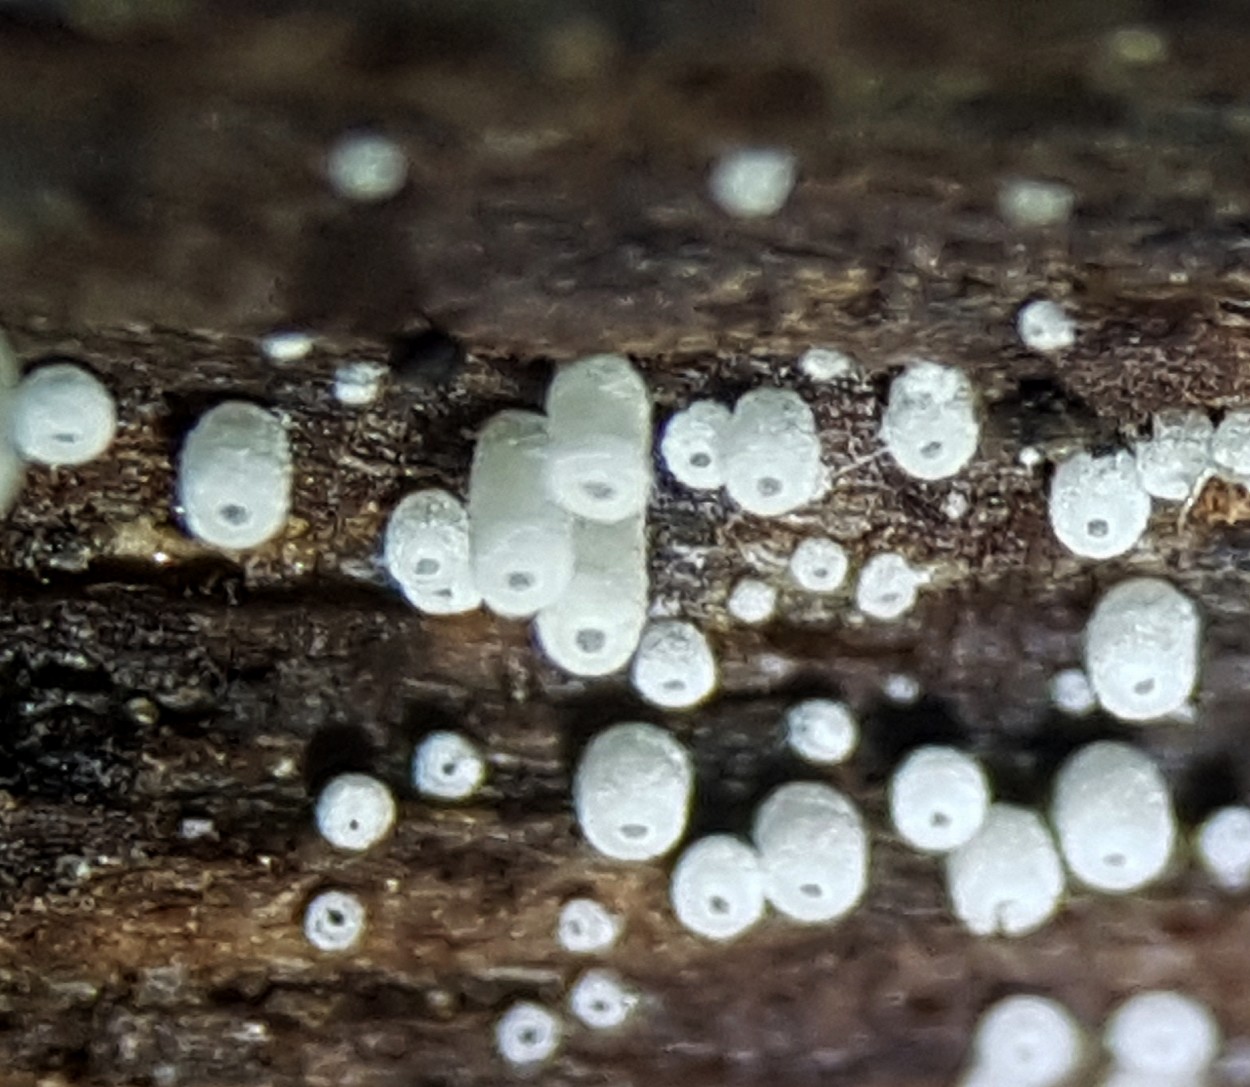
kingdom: Fungi
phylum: Basidiomycota
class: Agaricomycetes
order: Agaricales
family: Marasmiaceae
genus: Henningsomyces
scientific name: Henningsomyces candidus
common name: glat hængerør
